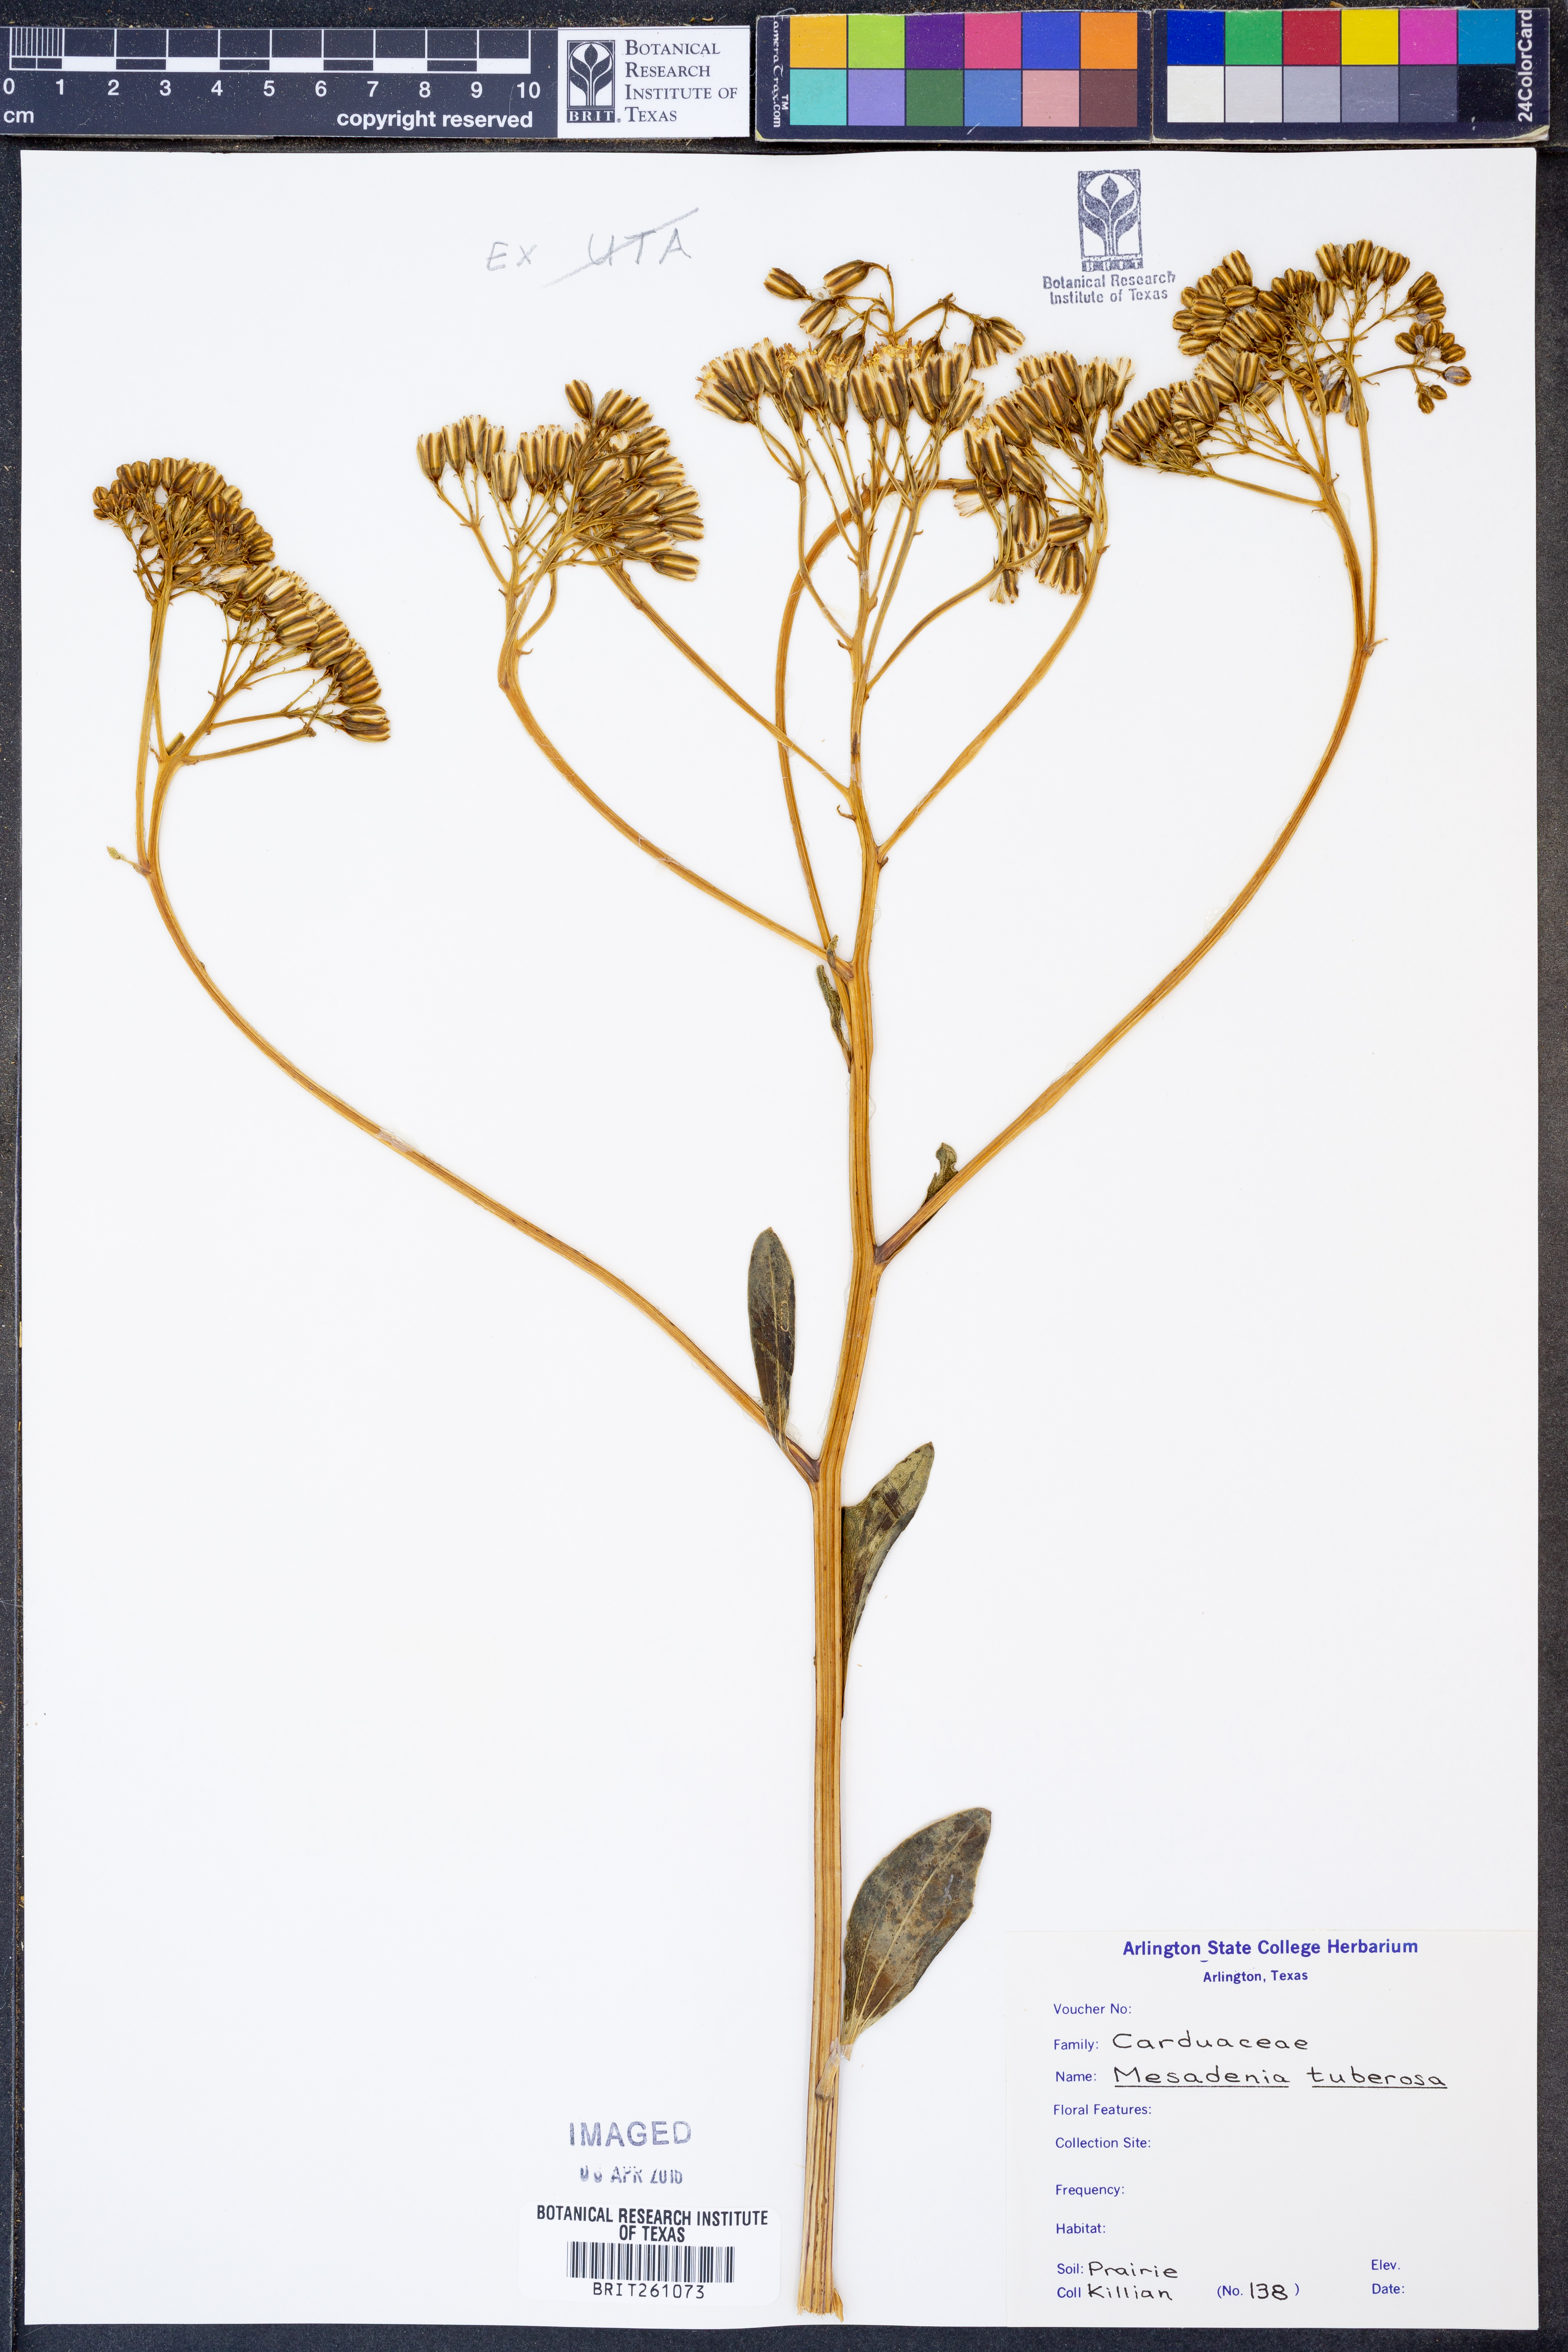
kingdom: Plantae
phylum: Tracheophyta
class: Magnoliopsida
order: Asterales
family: Asteraceae
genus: Arnoglossum
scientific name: Arnoglossum plantagineum
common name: Groove-stemmed indian-plantain
